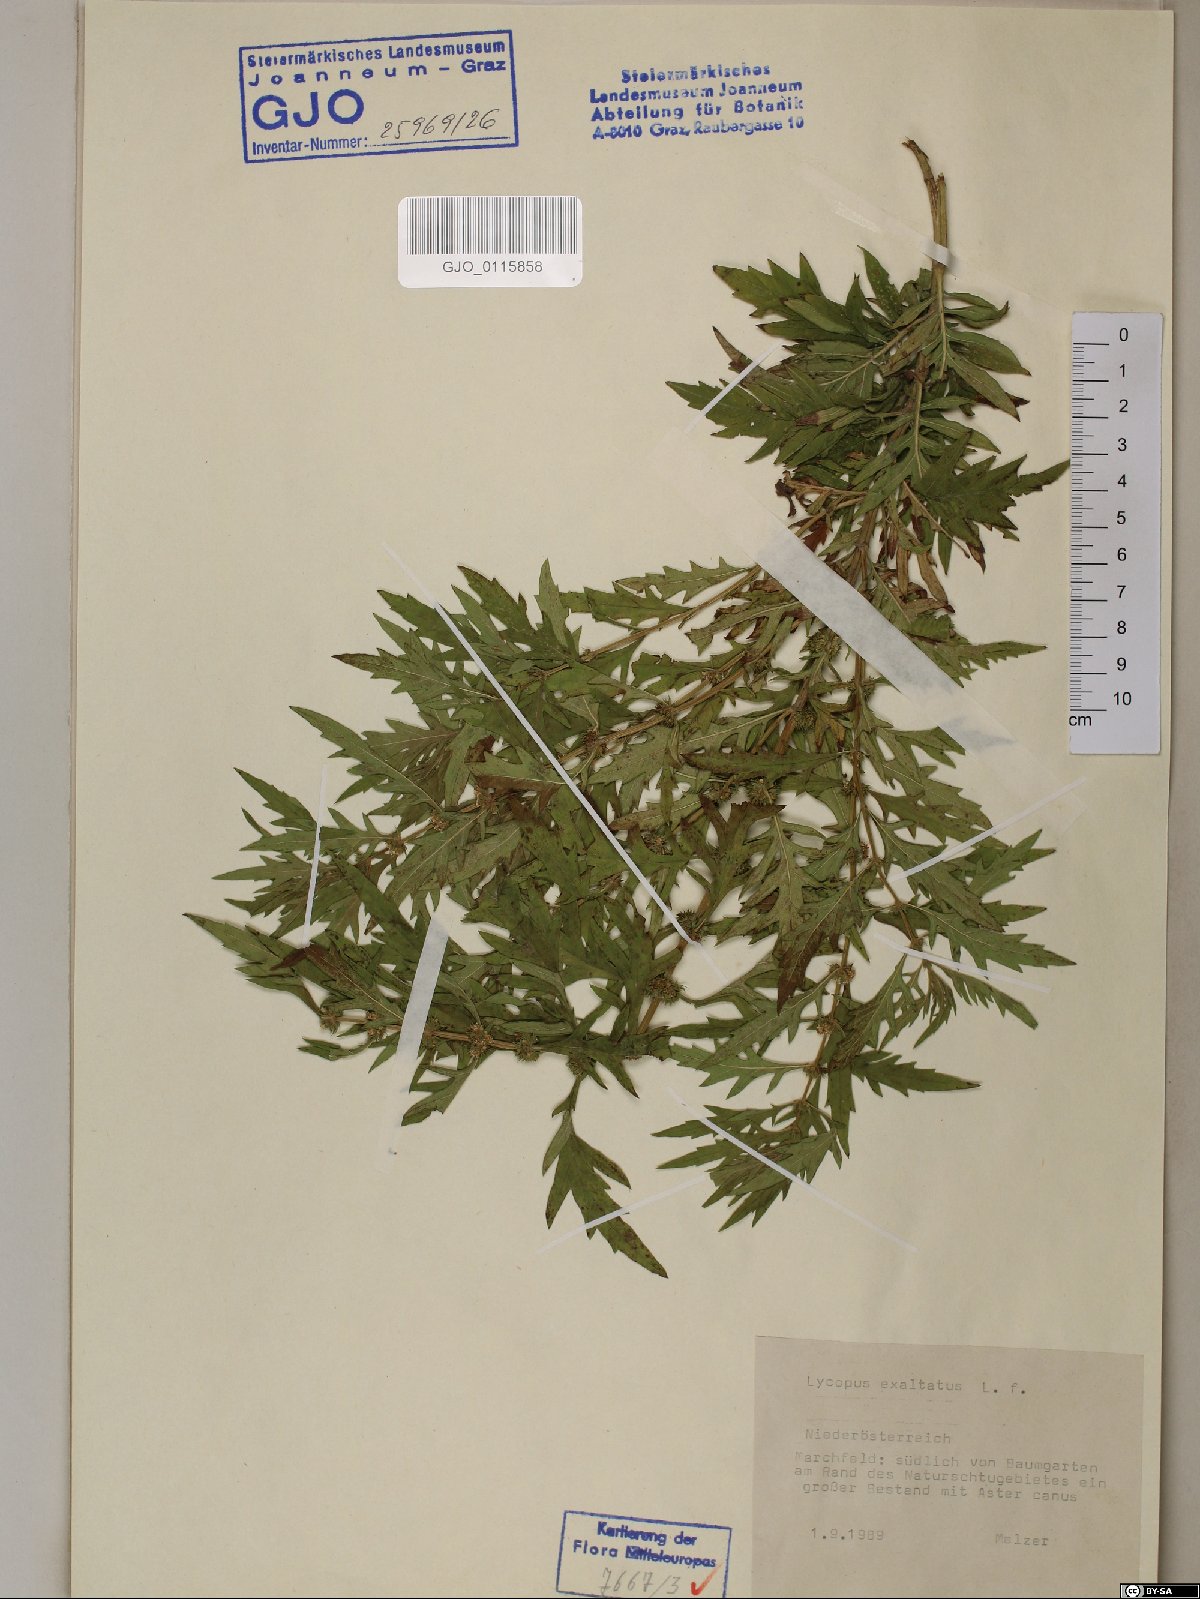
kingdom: Plantae
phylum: Tracheophyta
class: Magnoliopsida
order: Lamiales
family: Lamiaceae
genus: Lycopus
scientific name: Lycopus exaltatus
